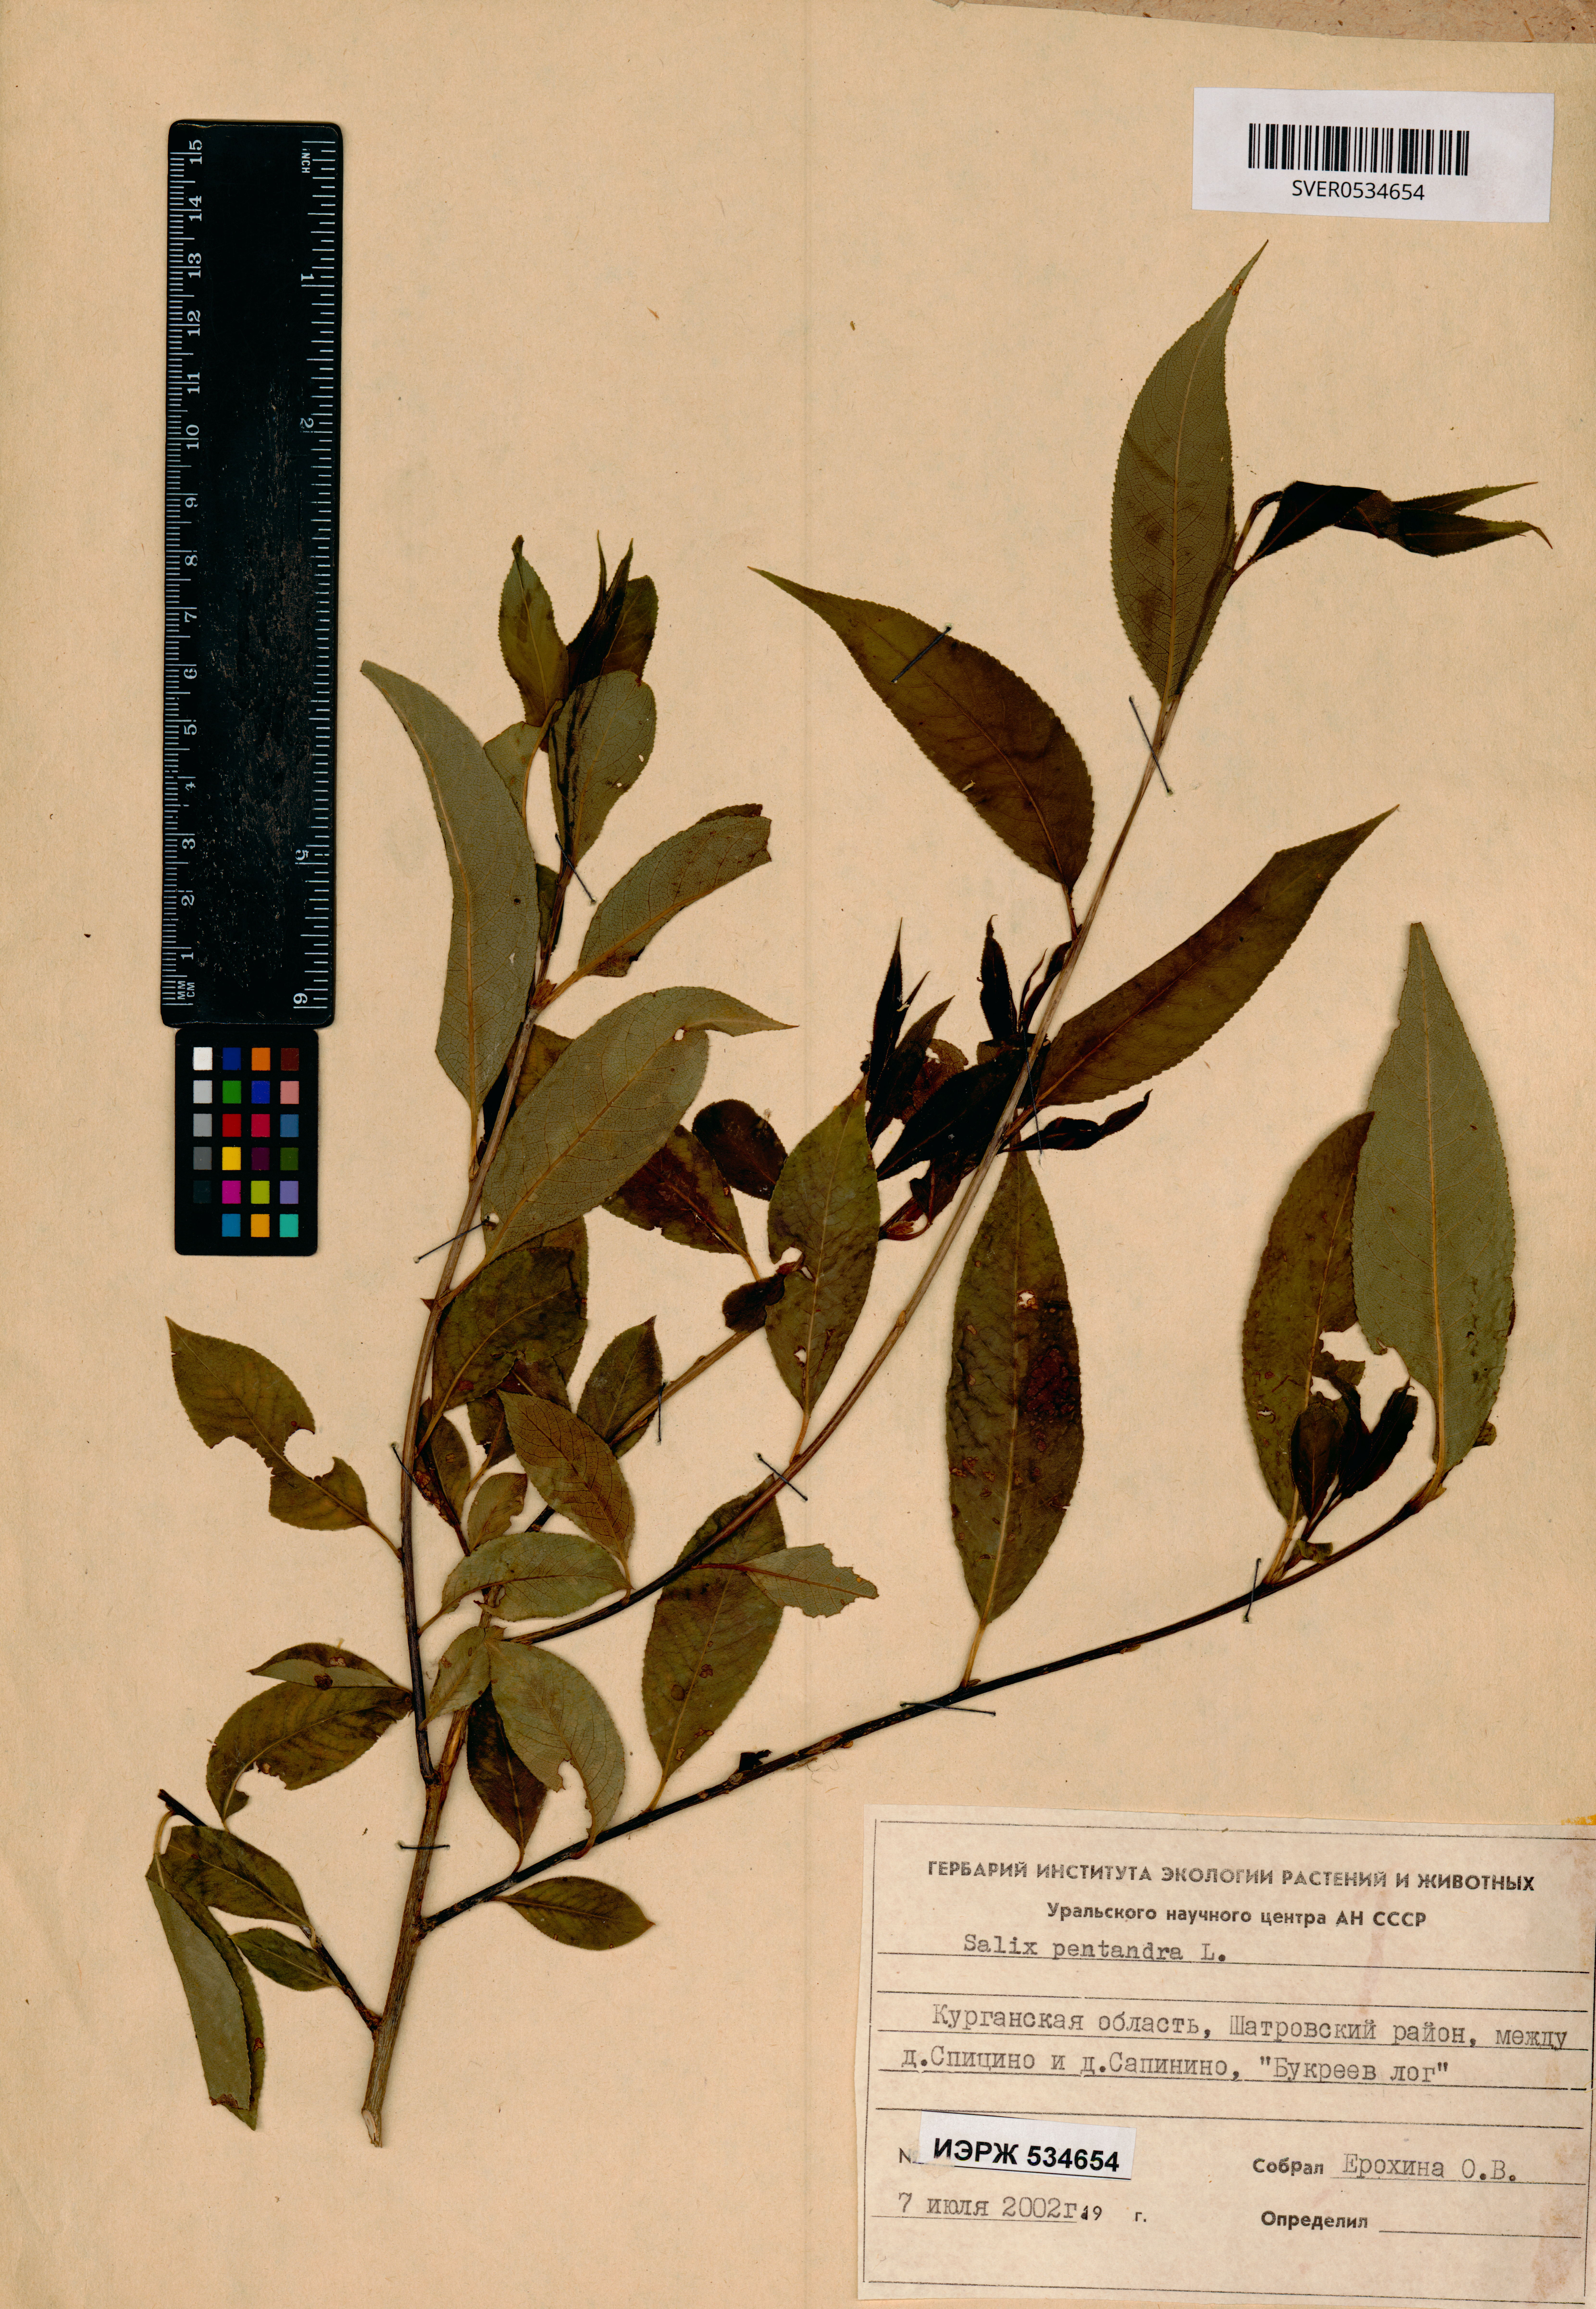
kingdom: Plantae
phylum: Tracheophyta
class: Magnoliopsida
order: Malpighiales
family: Salicaceae
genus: Salix
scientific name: Salix pentandra
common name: Bay willow
